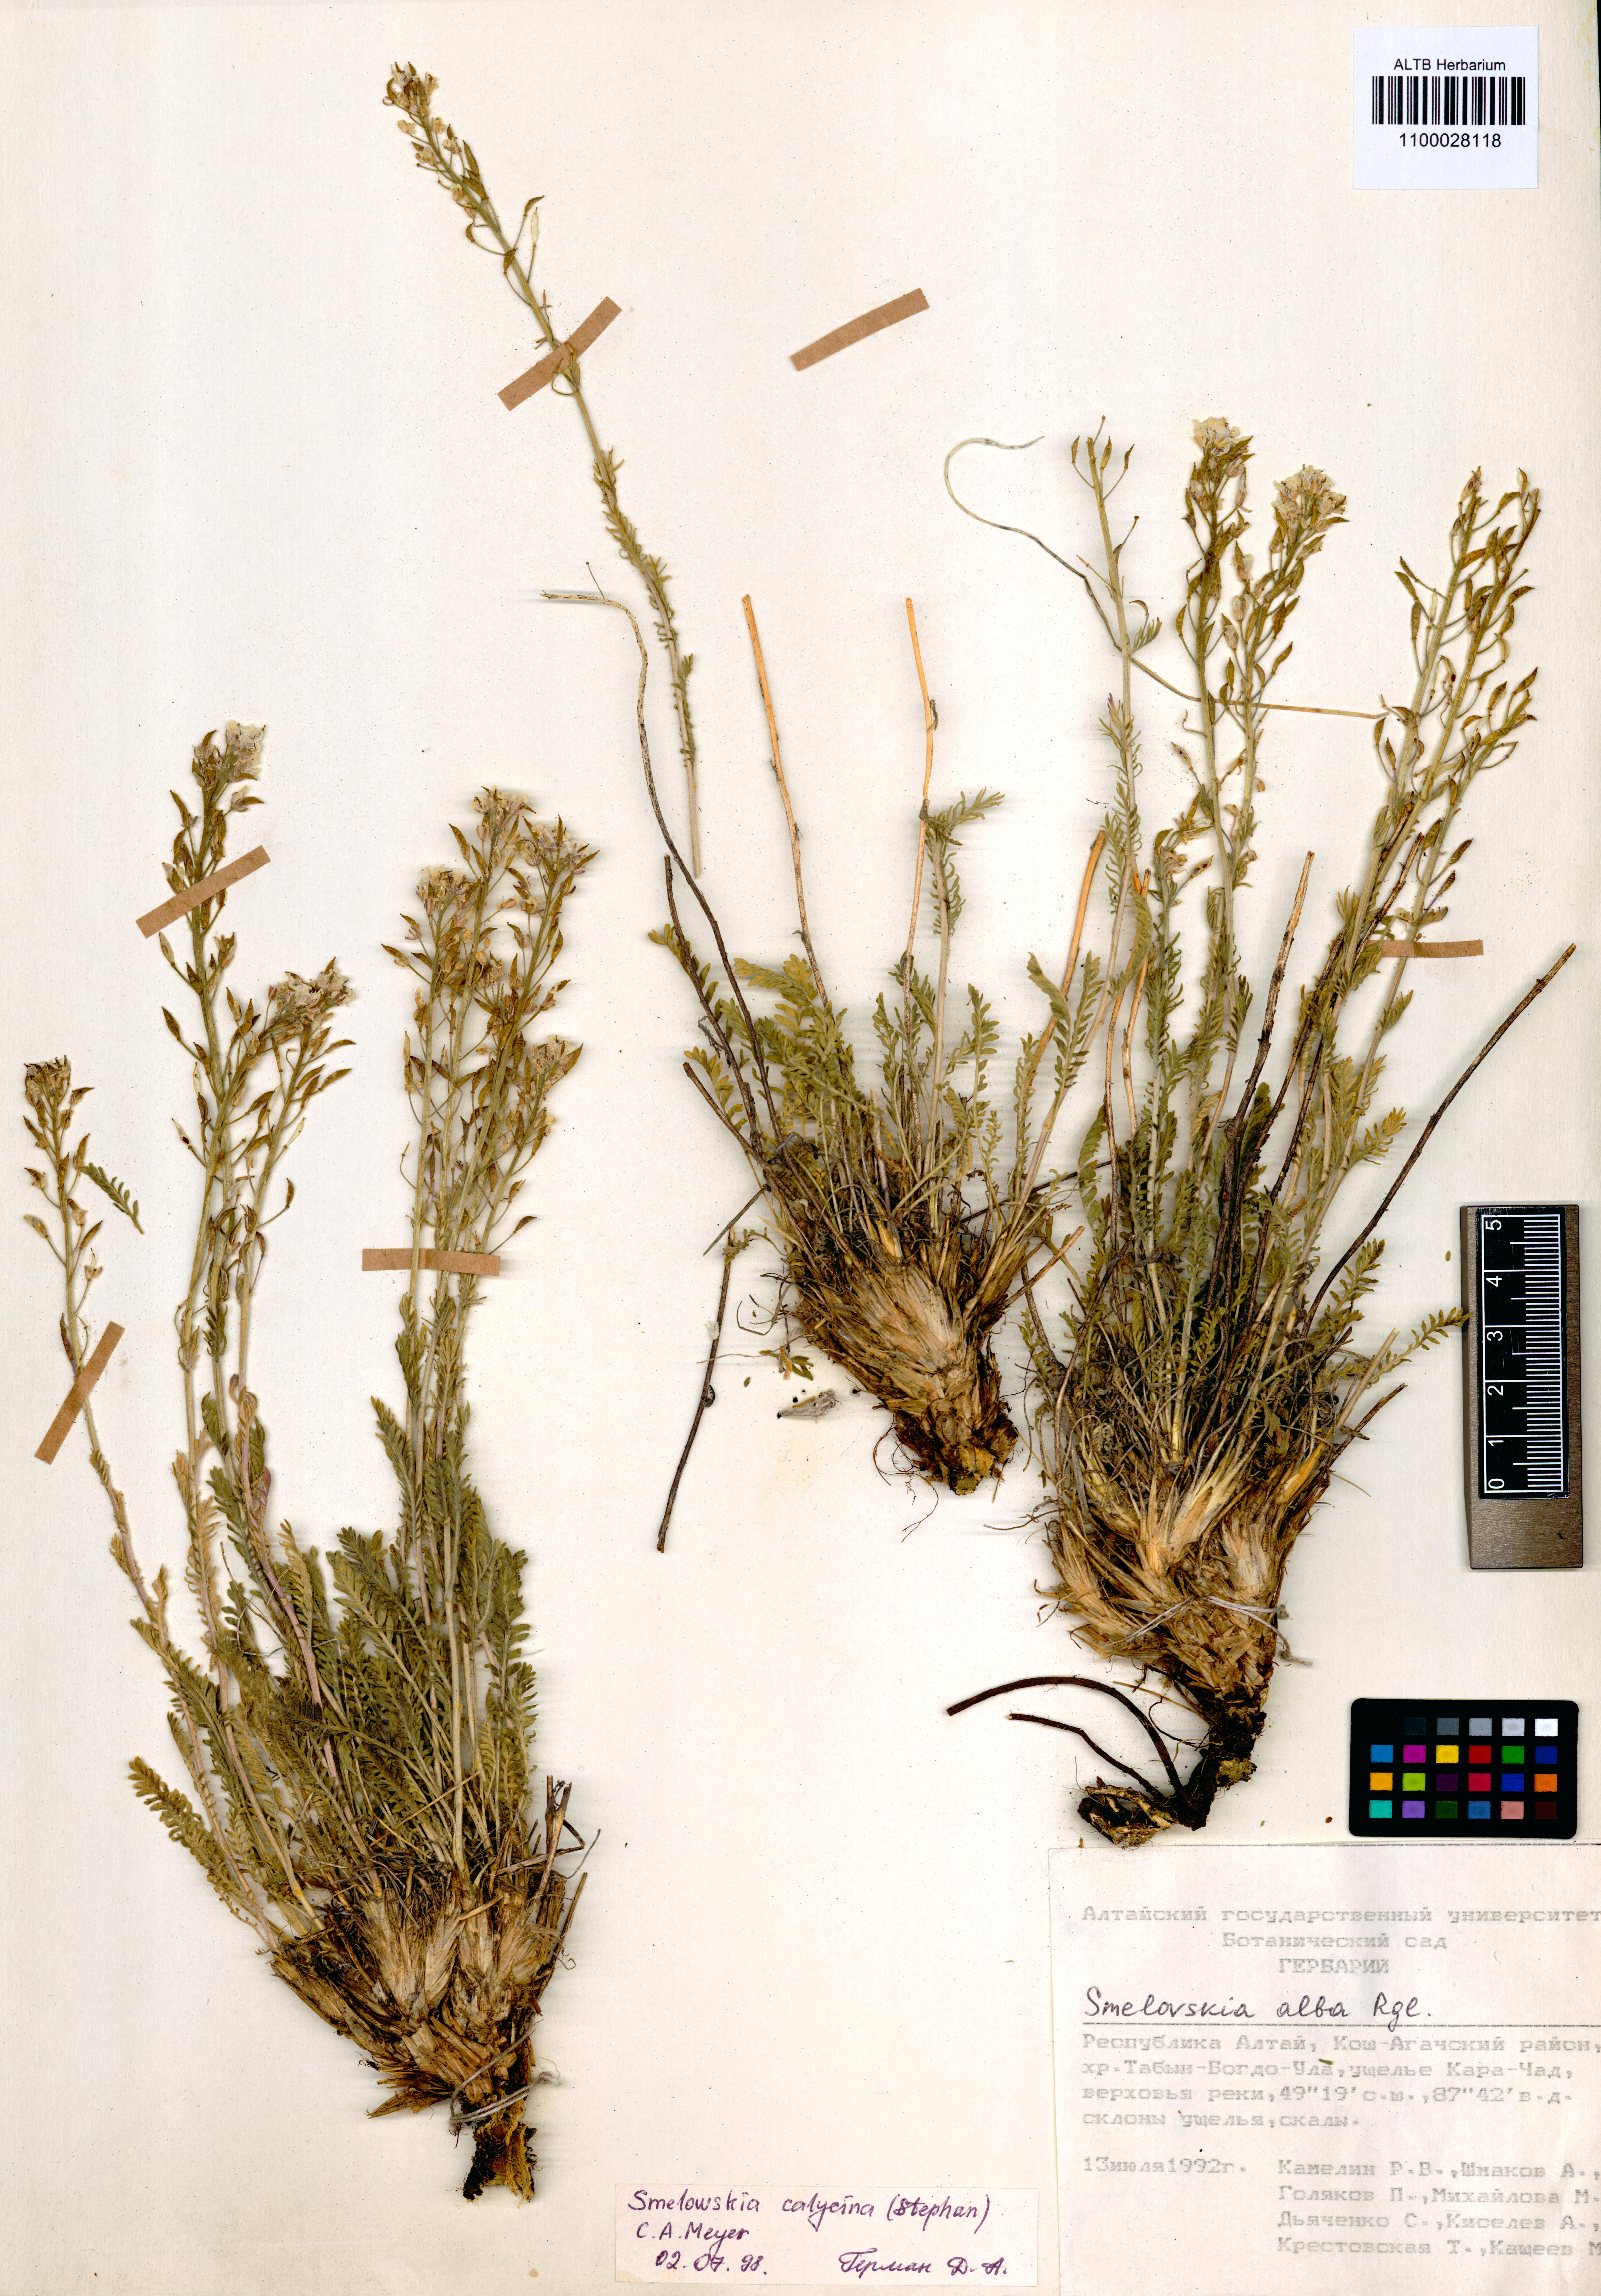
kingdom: Plantae
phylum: Tracheophyta
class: Magnoliopsida
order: Brassicales
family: Brassicaceae
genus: Smelowskia
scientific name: Smelowskia calycina
